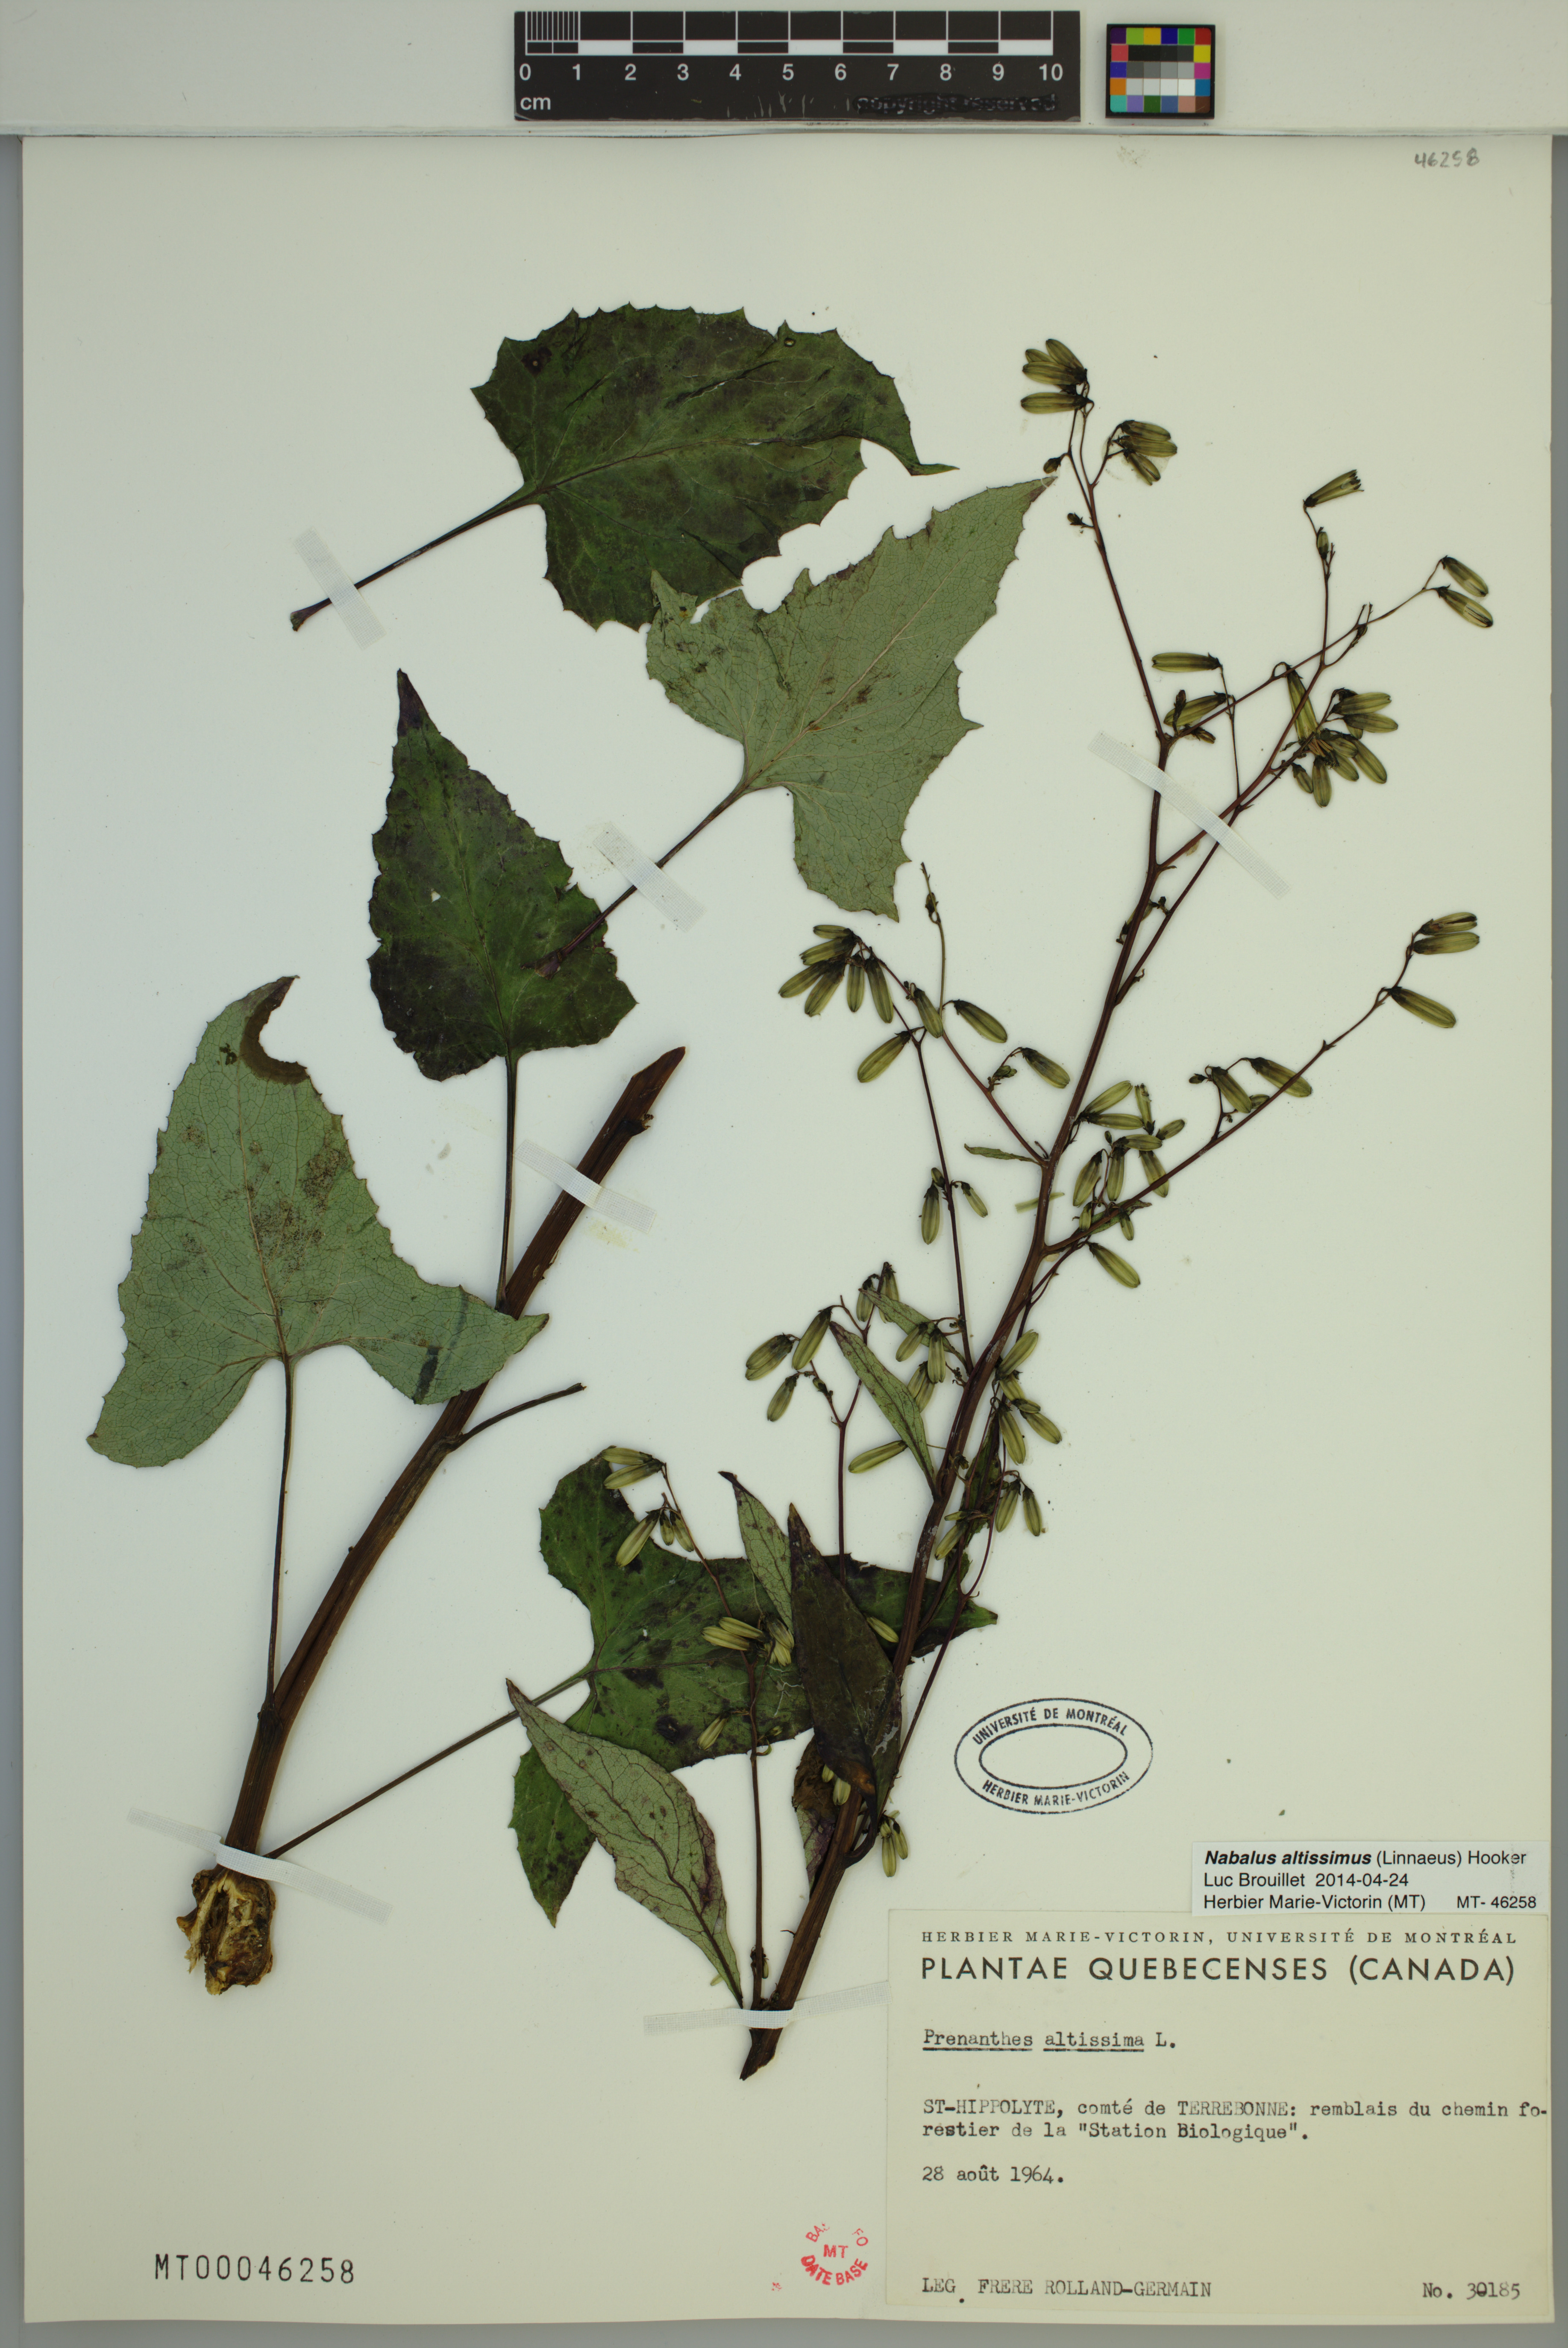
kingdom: Plantae
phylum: Tracheophyta
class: Magnoliopsida
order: Asterales
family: Asteraceae
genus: Nabalus
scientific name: Nabalus altissima
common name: Tall rattlesnakeroot
